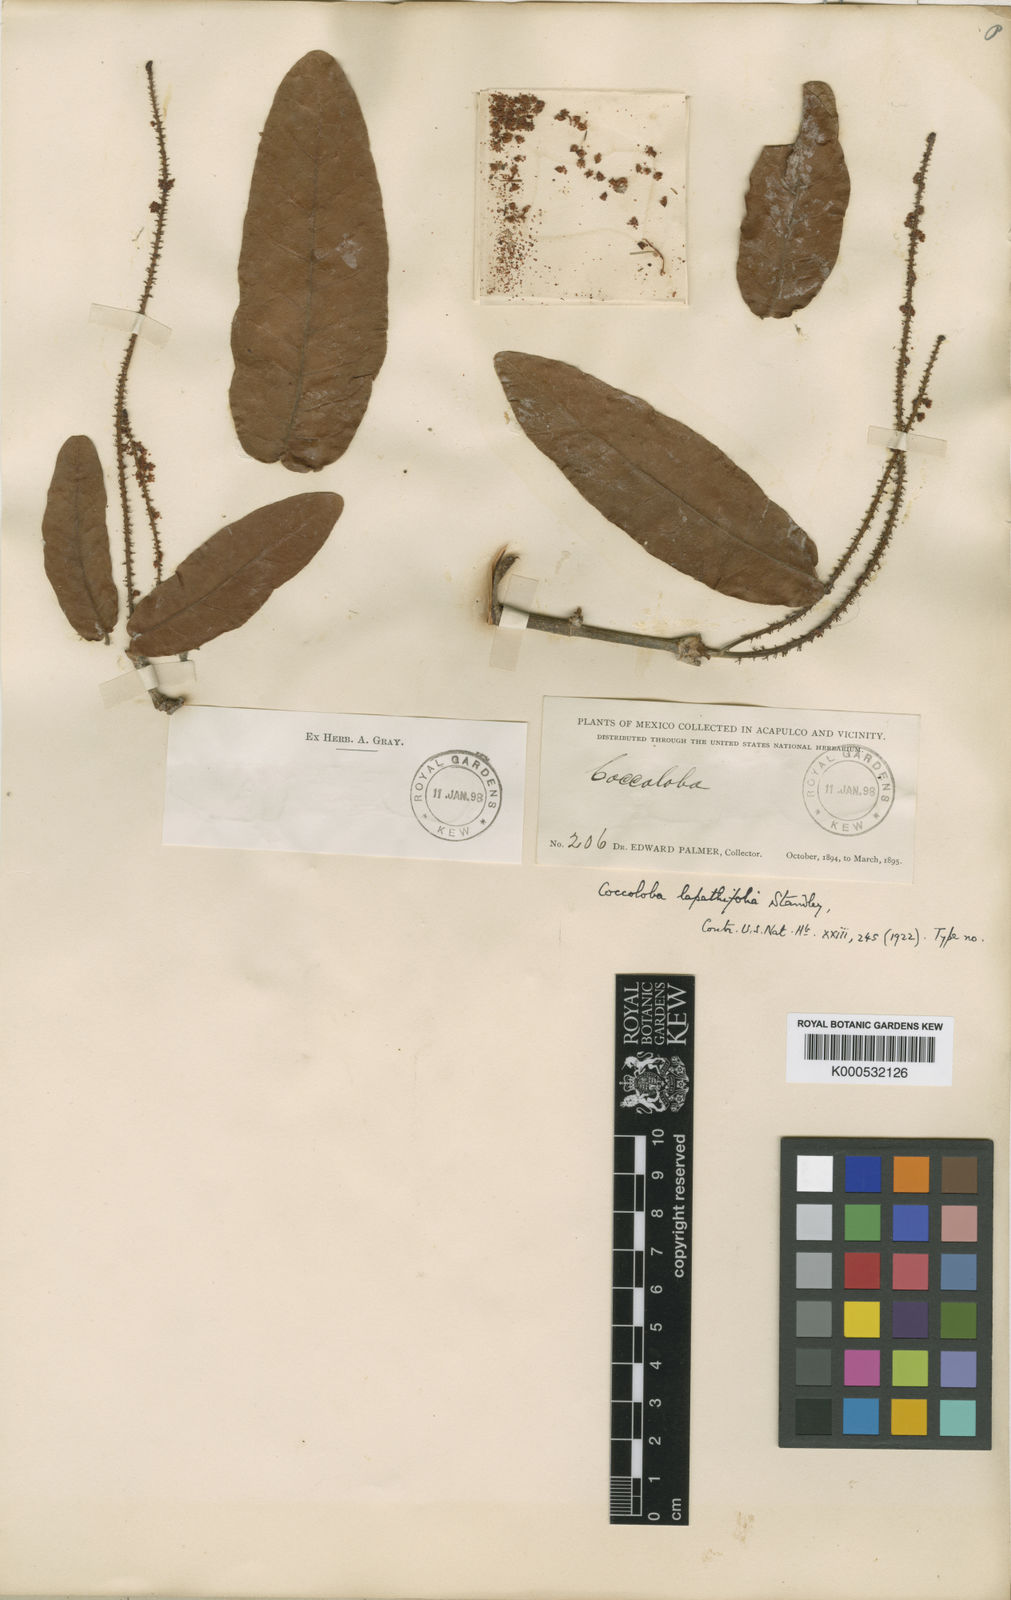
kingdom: Plantae
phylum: Tracheophyta
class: Magnoliopsida
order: Caryophyllales
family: Polygonaceae
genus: Coccoloba
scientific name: Coccoloba lapathifolia
